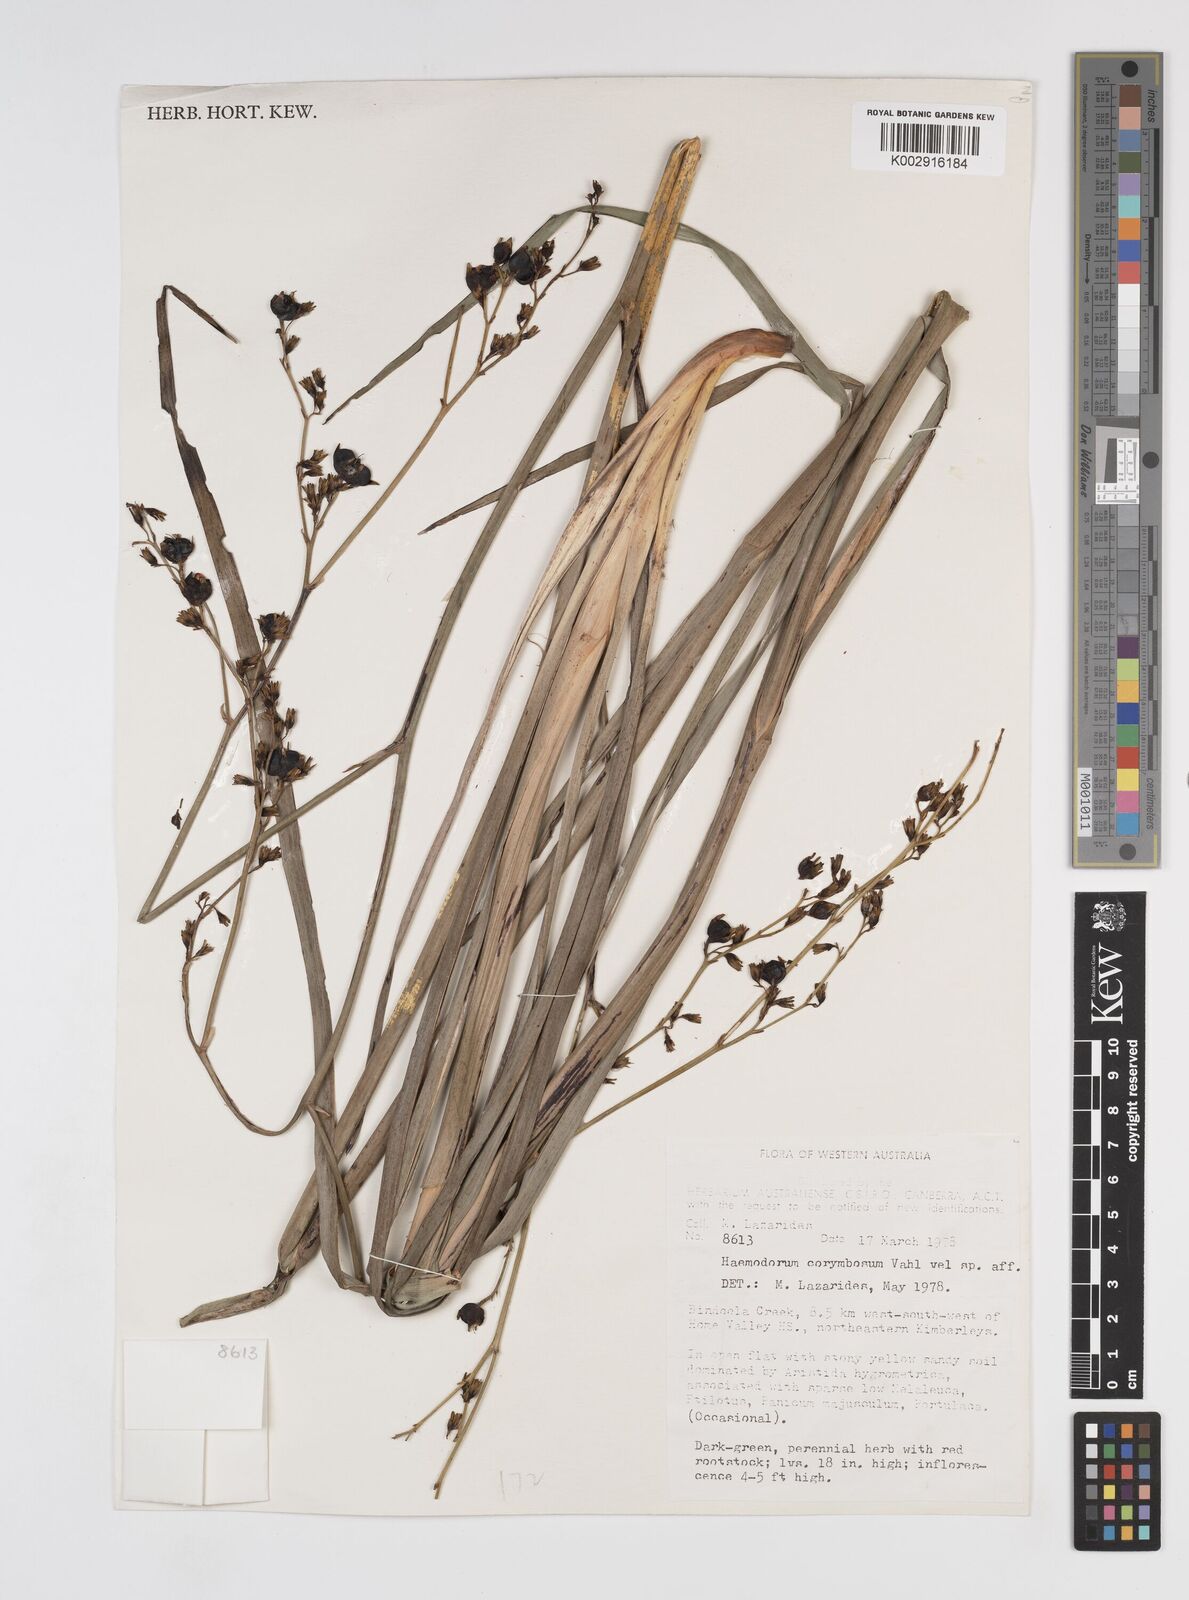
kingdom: Plantae
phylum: Tracheophyta
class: Liliopsida
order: Commelinales
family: Haemodoraceae
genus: Haemodorum
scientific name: Haemodorum corymbosum
